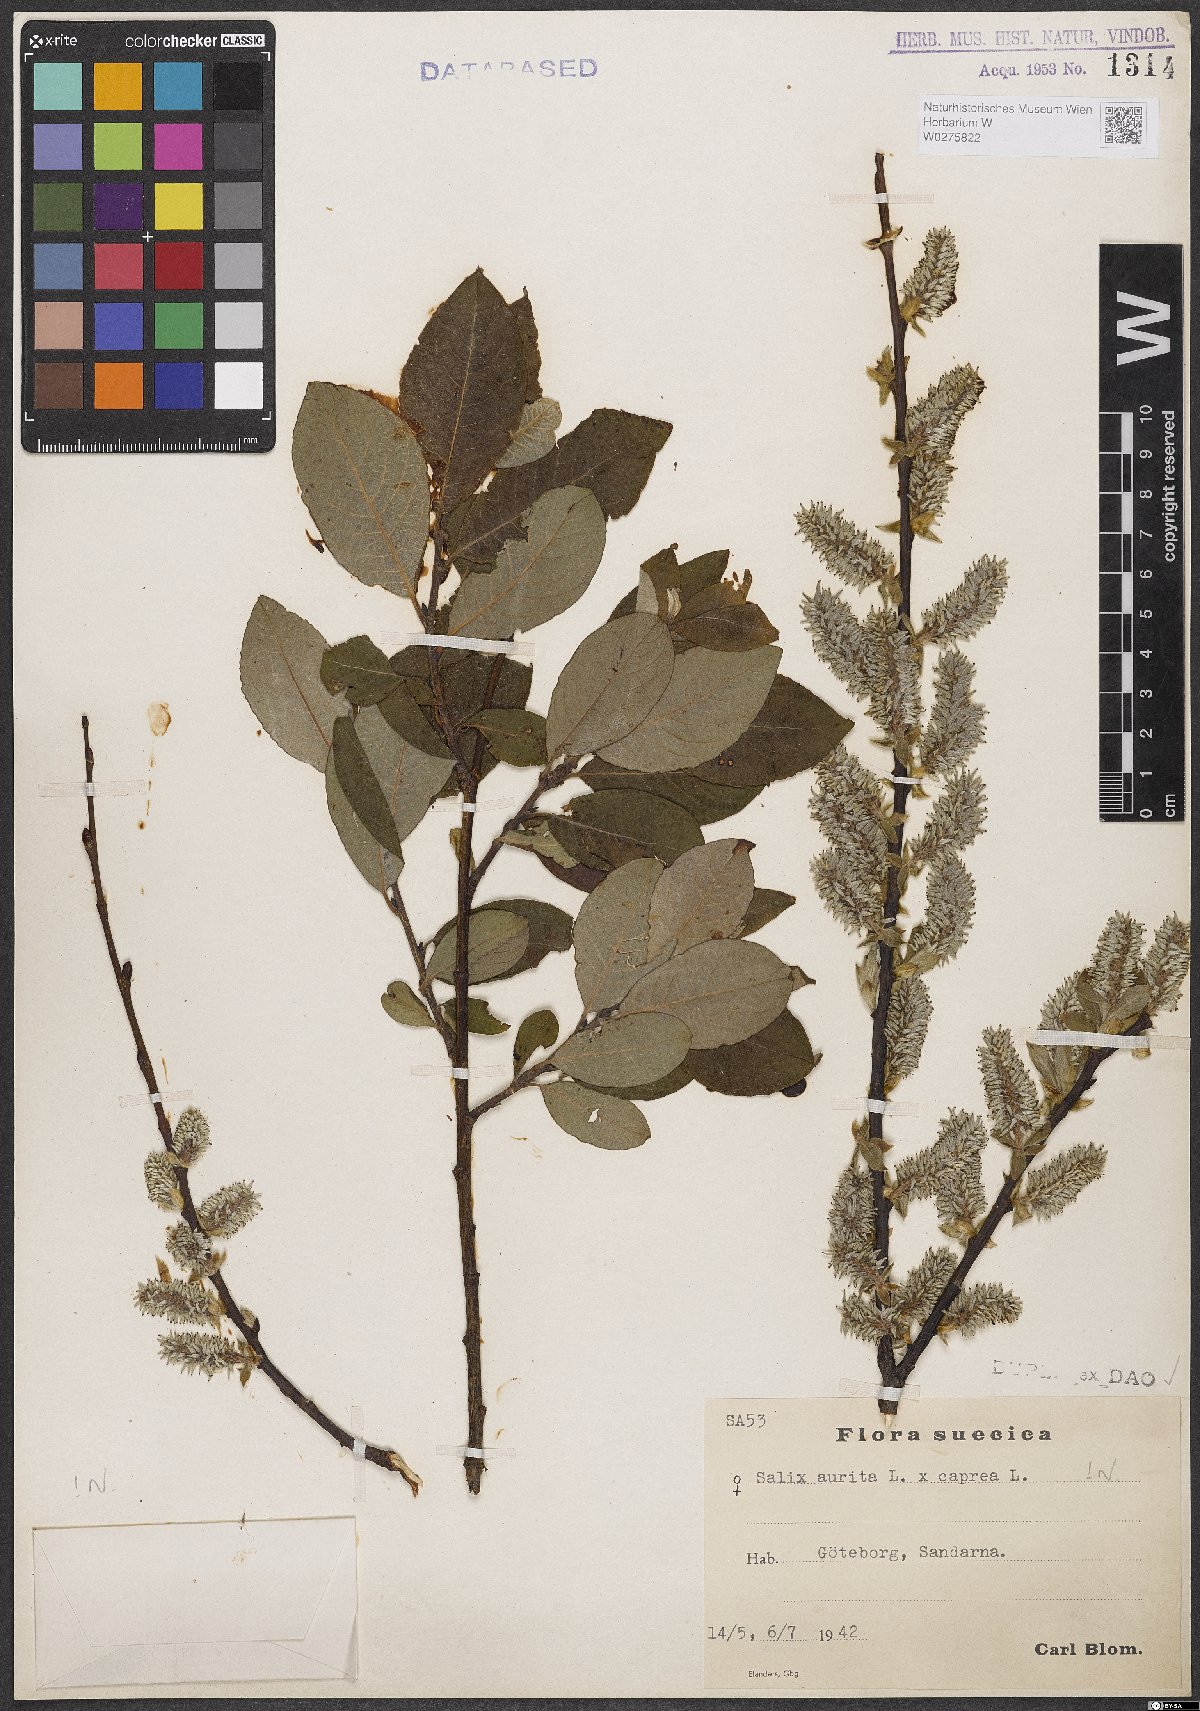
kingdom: Plantae
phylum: Tracheophyta
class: Magnoliopsida
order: Malpighiales
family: Salicaceae
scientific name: Salicaceae
